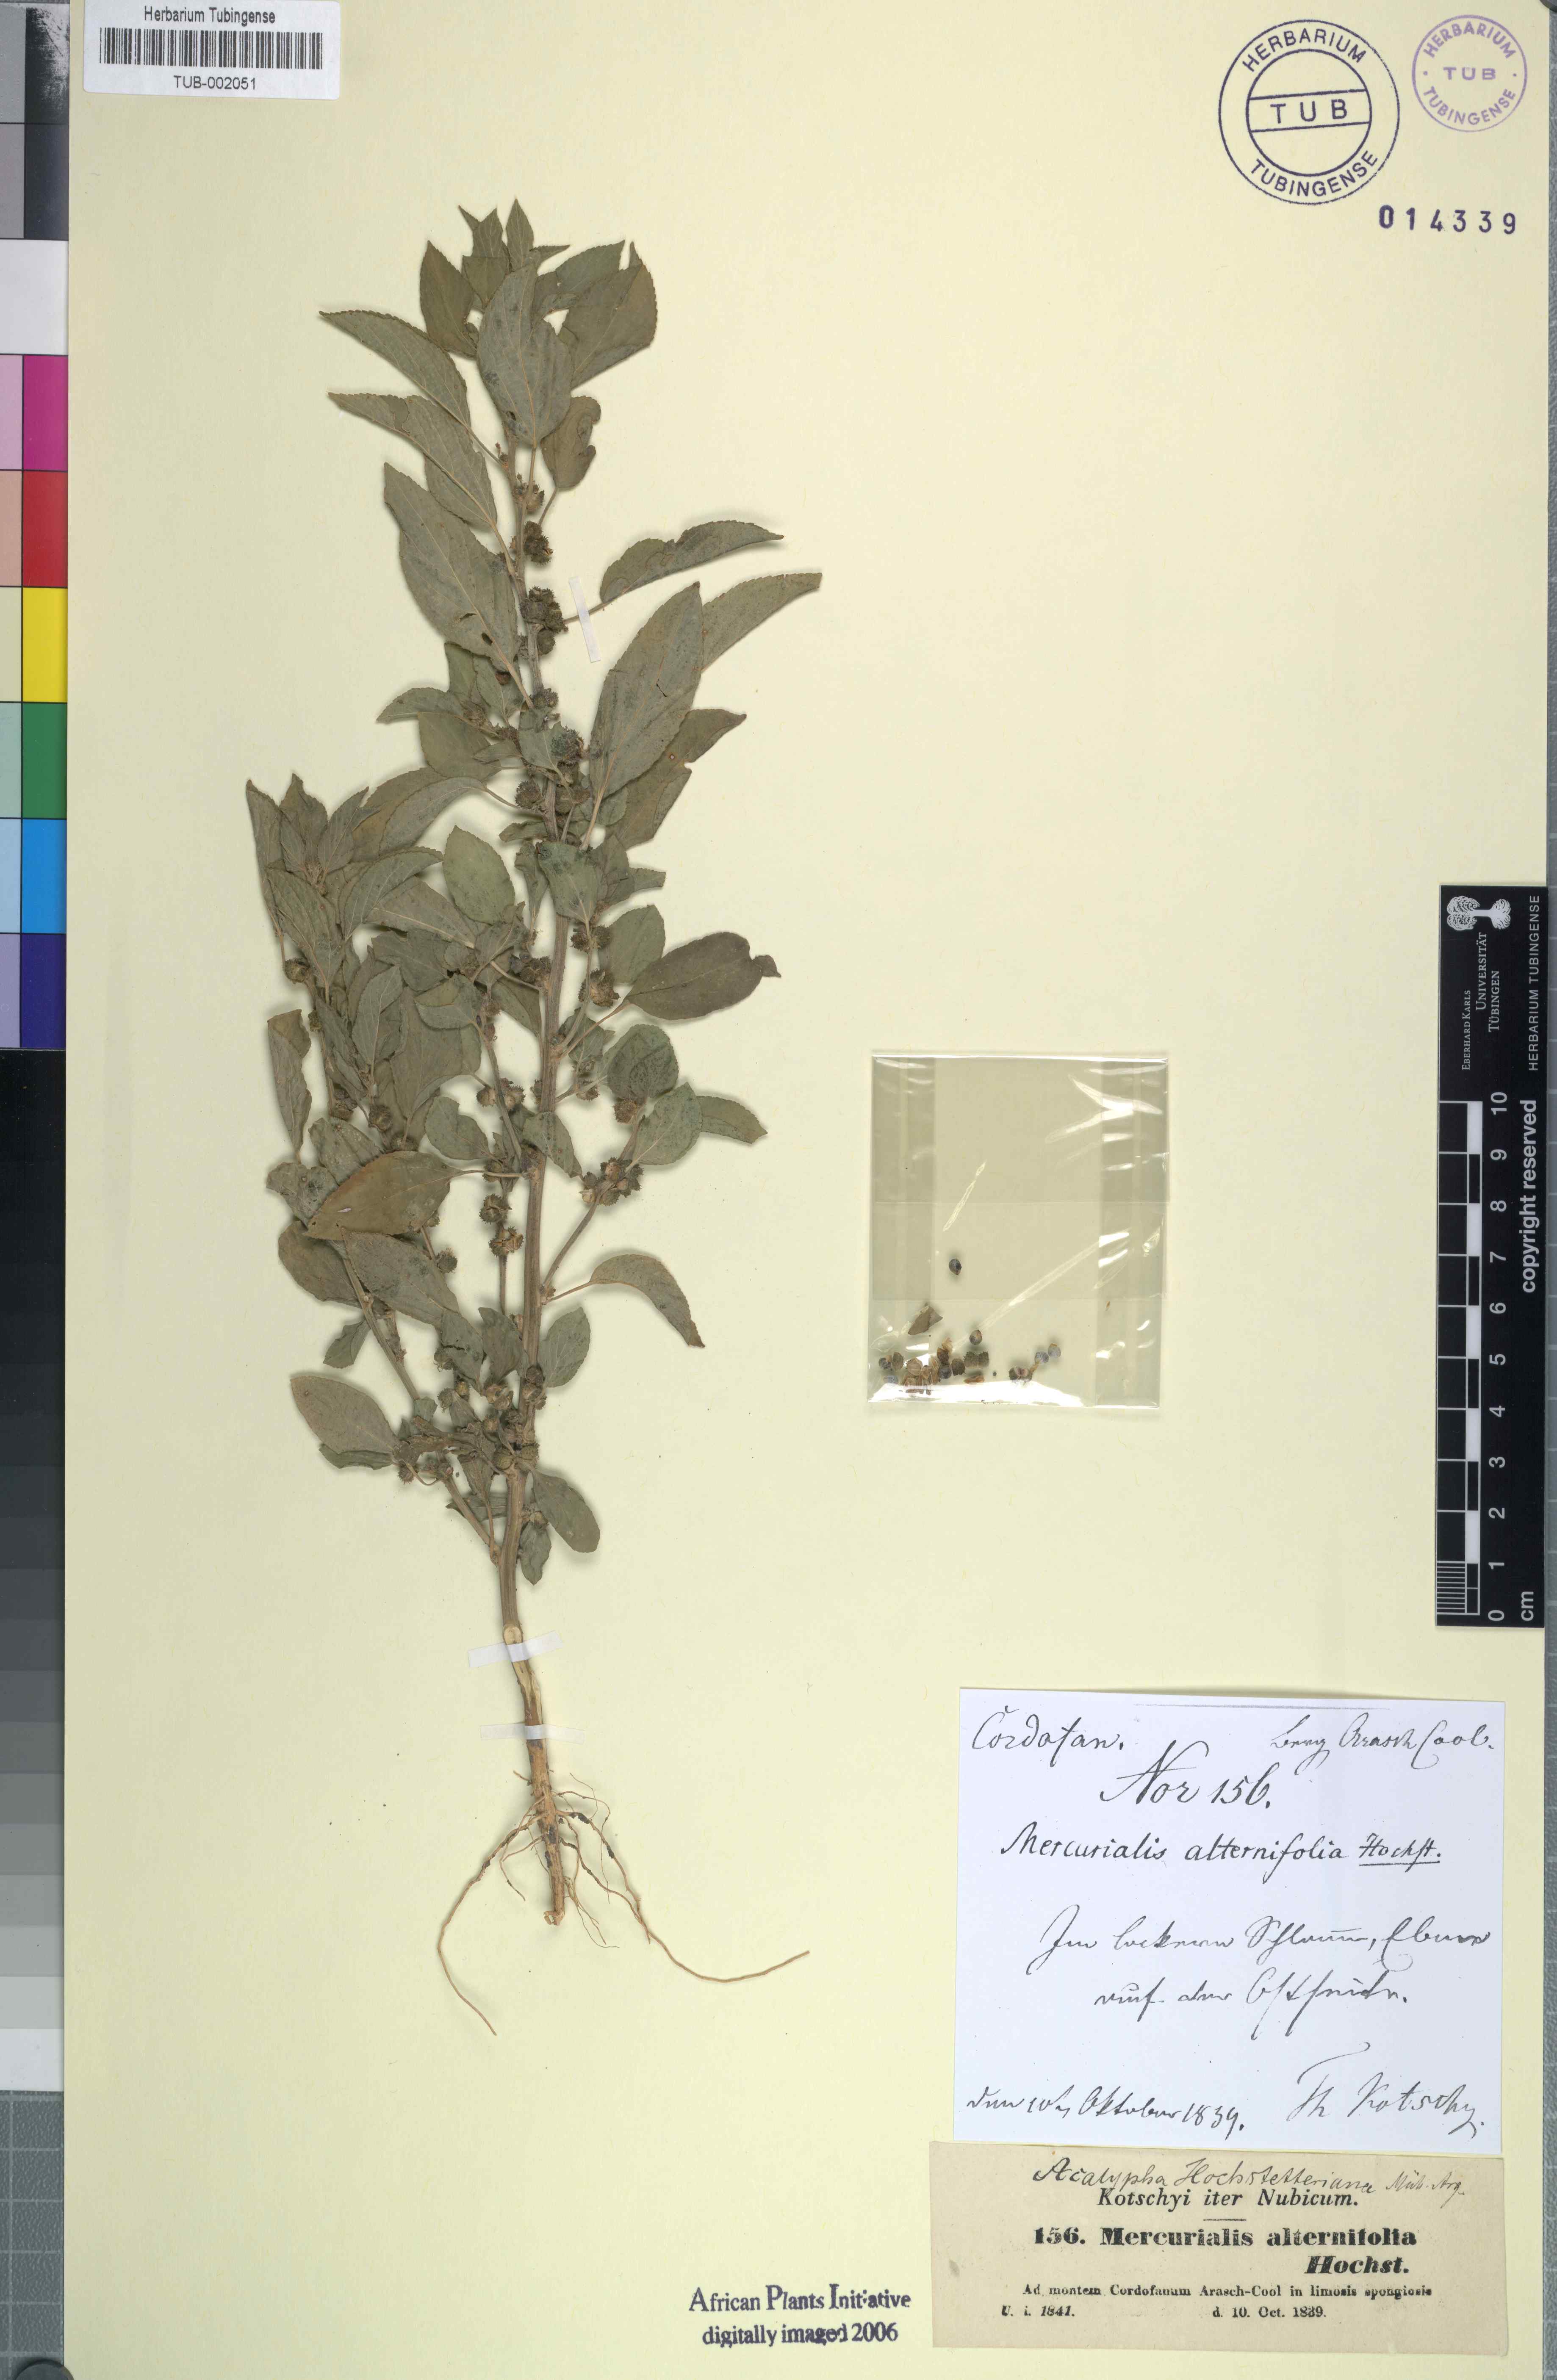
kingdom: Plantae
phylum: Tracheophyta
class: Magnoliopsida
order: Malpighiales
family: Euphorbiaceae
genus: Acalypha
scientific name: Acalypha hochstetteriana
